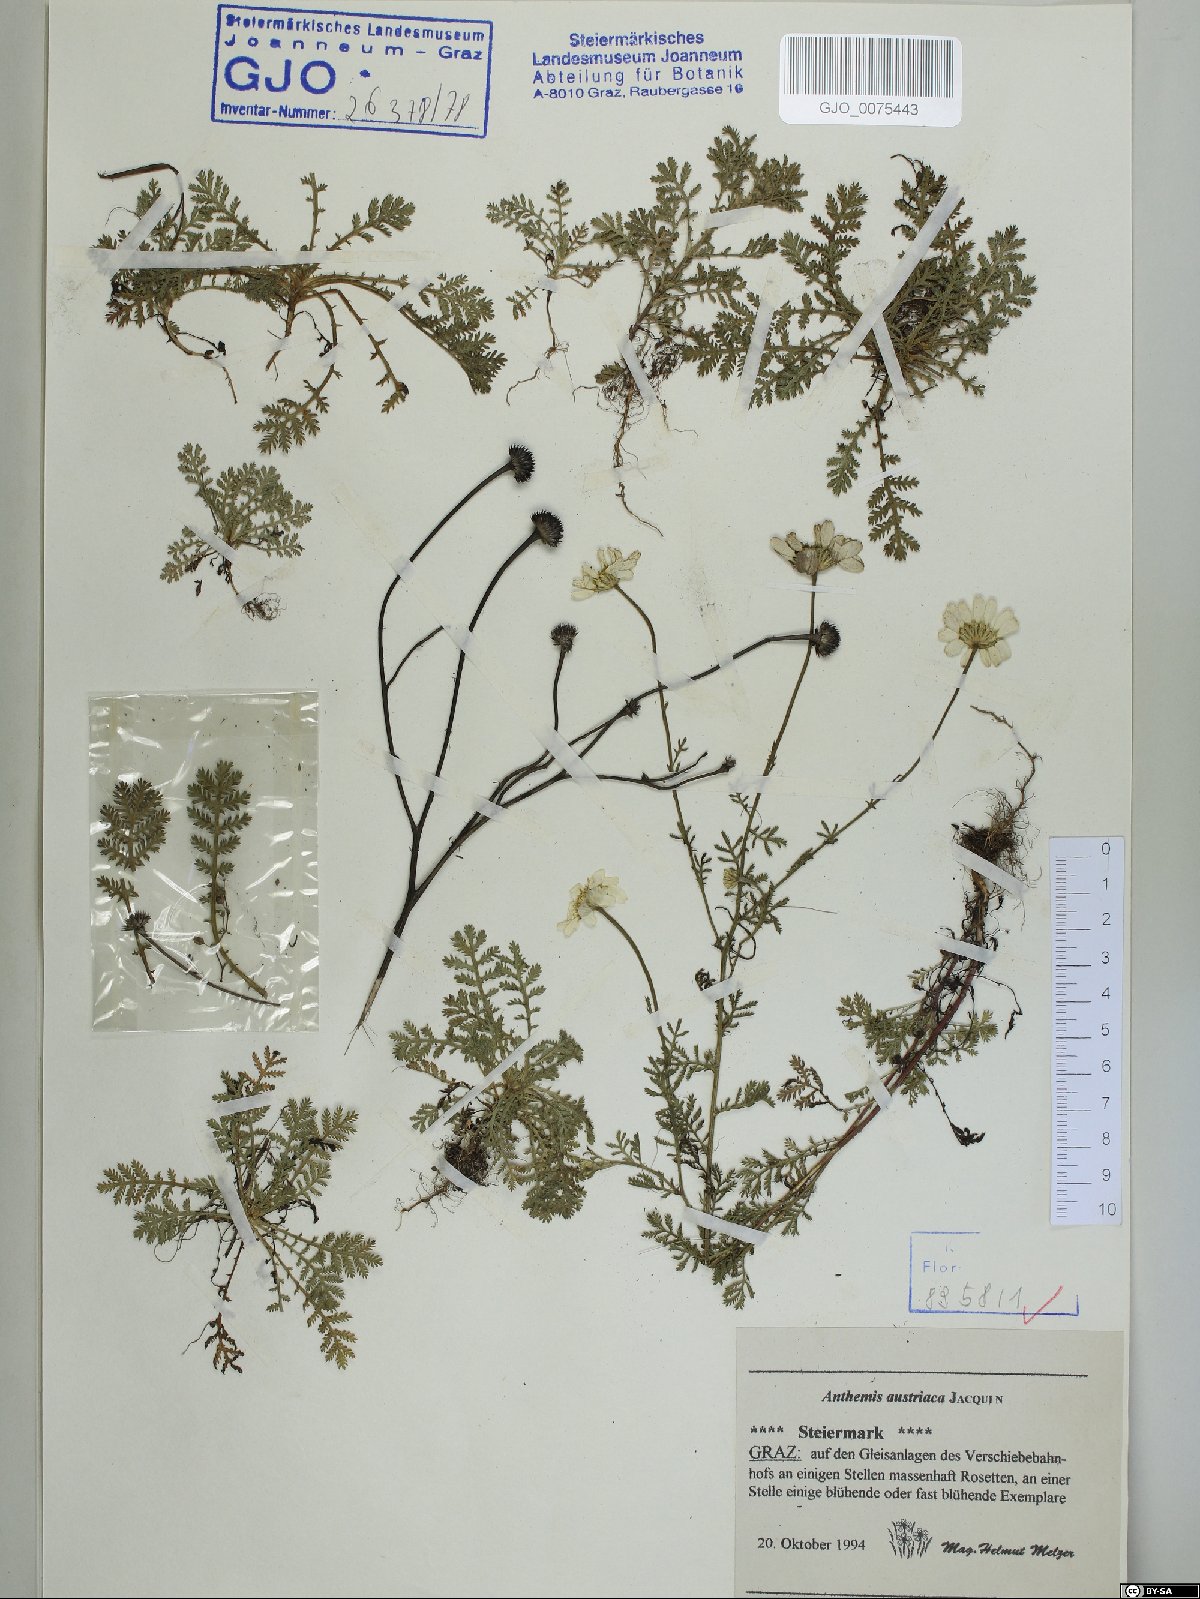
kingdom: Plantae
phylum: Tracheophyta
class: Magnoliopsida
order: Asterales
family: Asteraceae
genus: Cota
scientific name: Cota austriaca
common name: Austrian chamomile
